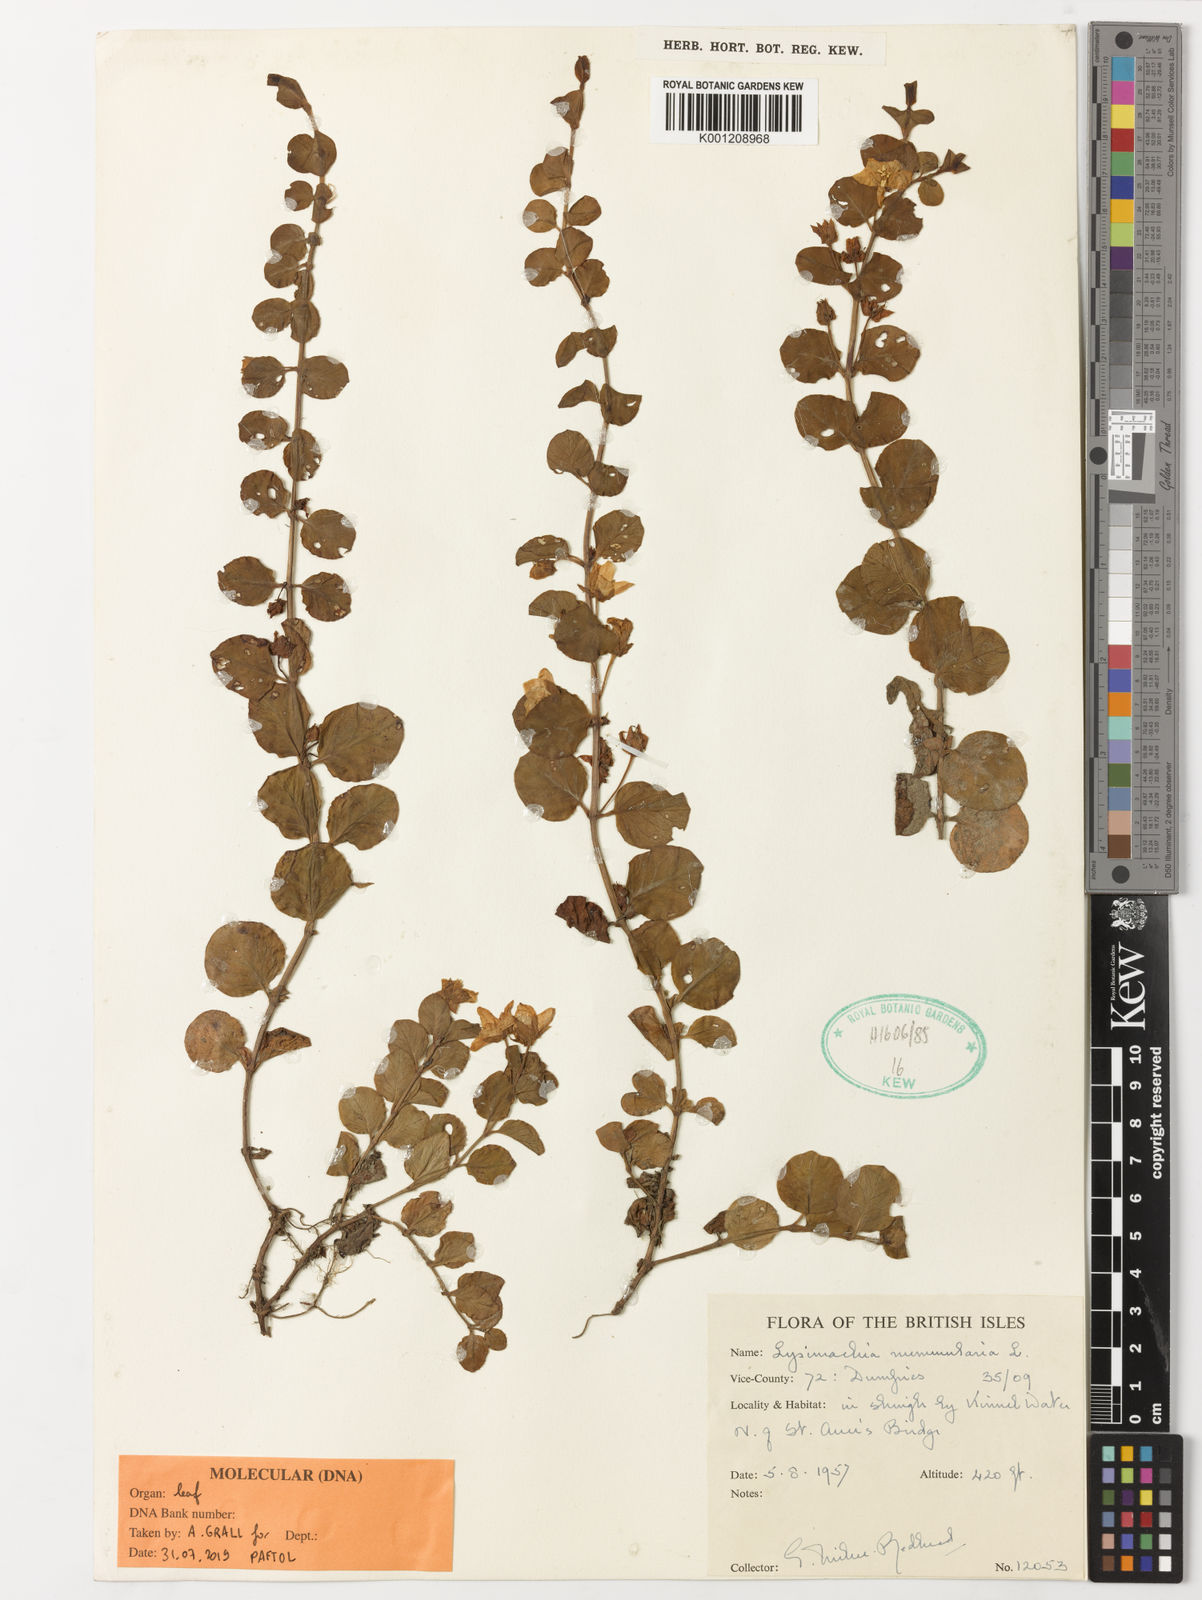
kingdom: Plantae
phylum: Tracheophyta
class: Magnoliopsida
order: Ericales
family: Primulaceae
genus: Lysimachia
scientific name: Lysimachia nummularia
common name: Moneywort
